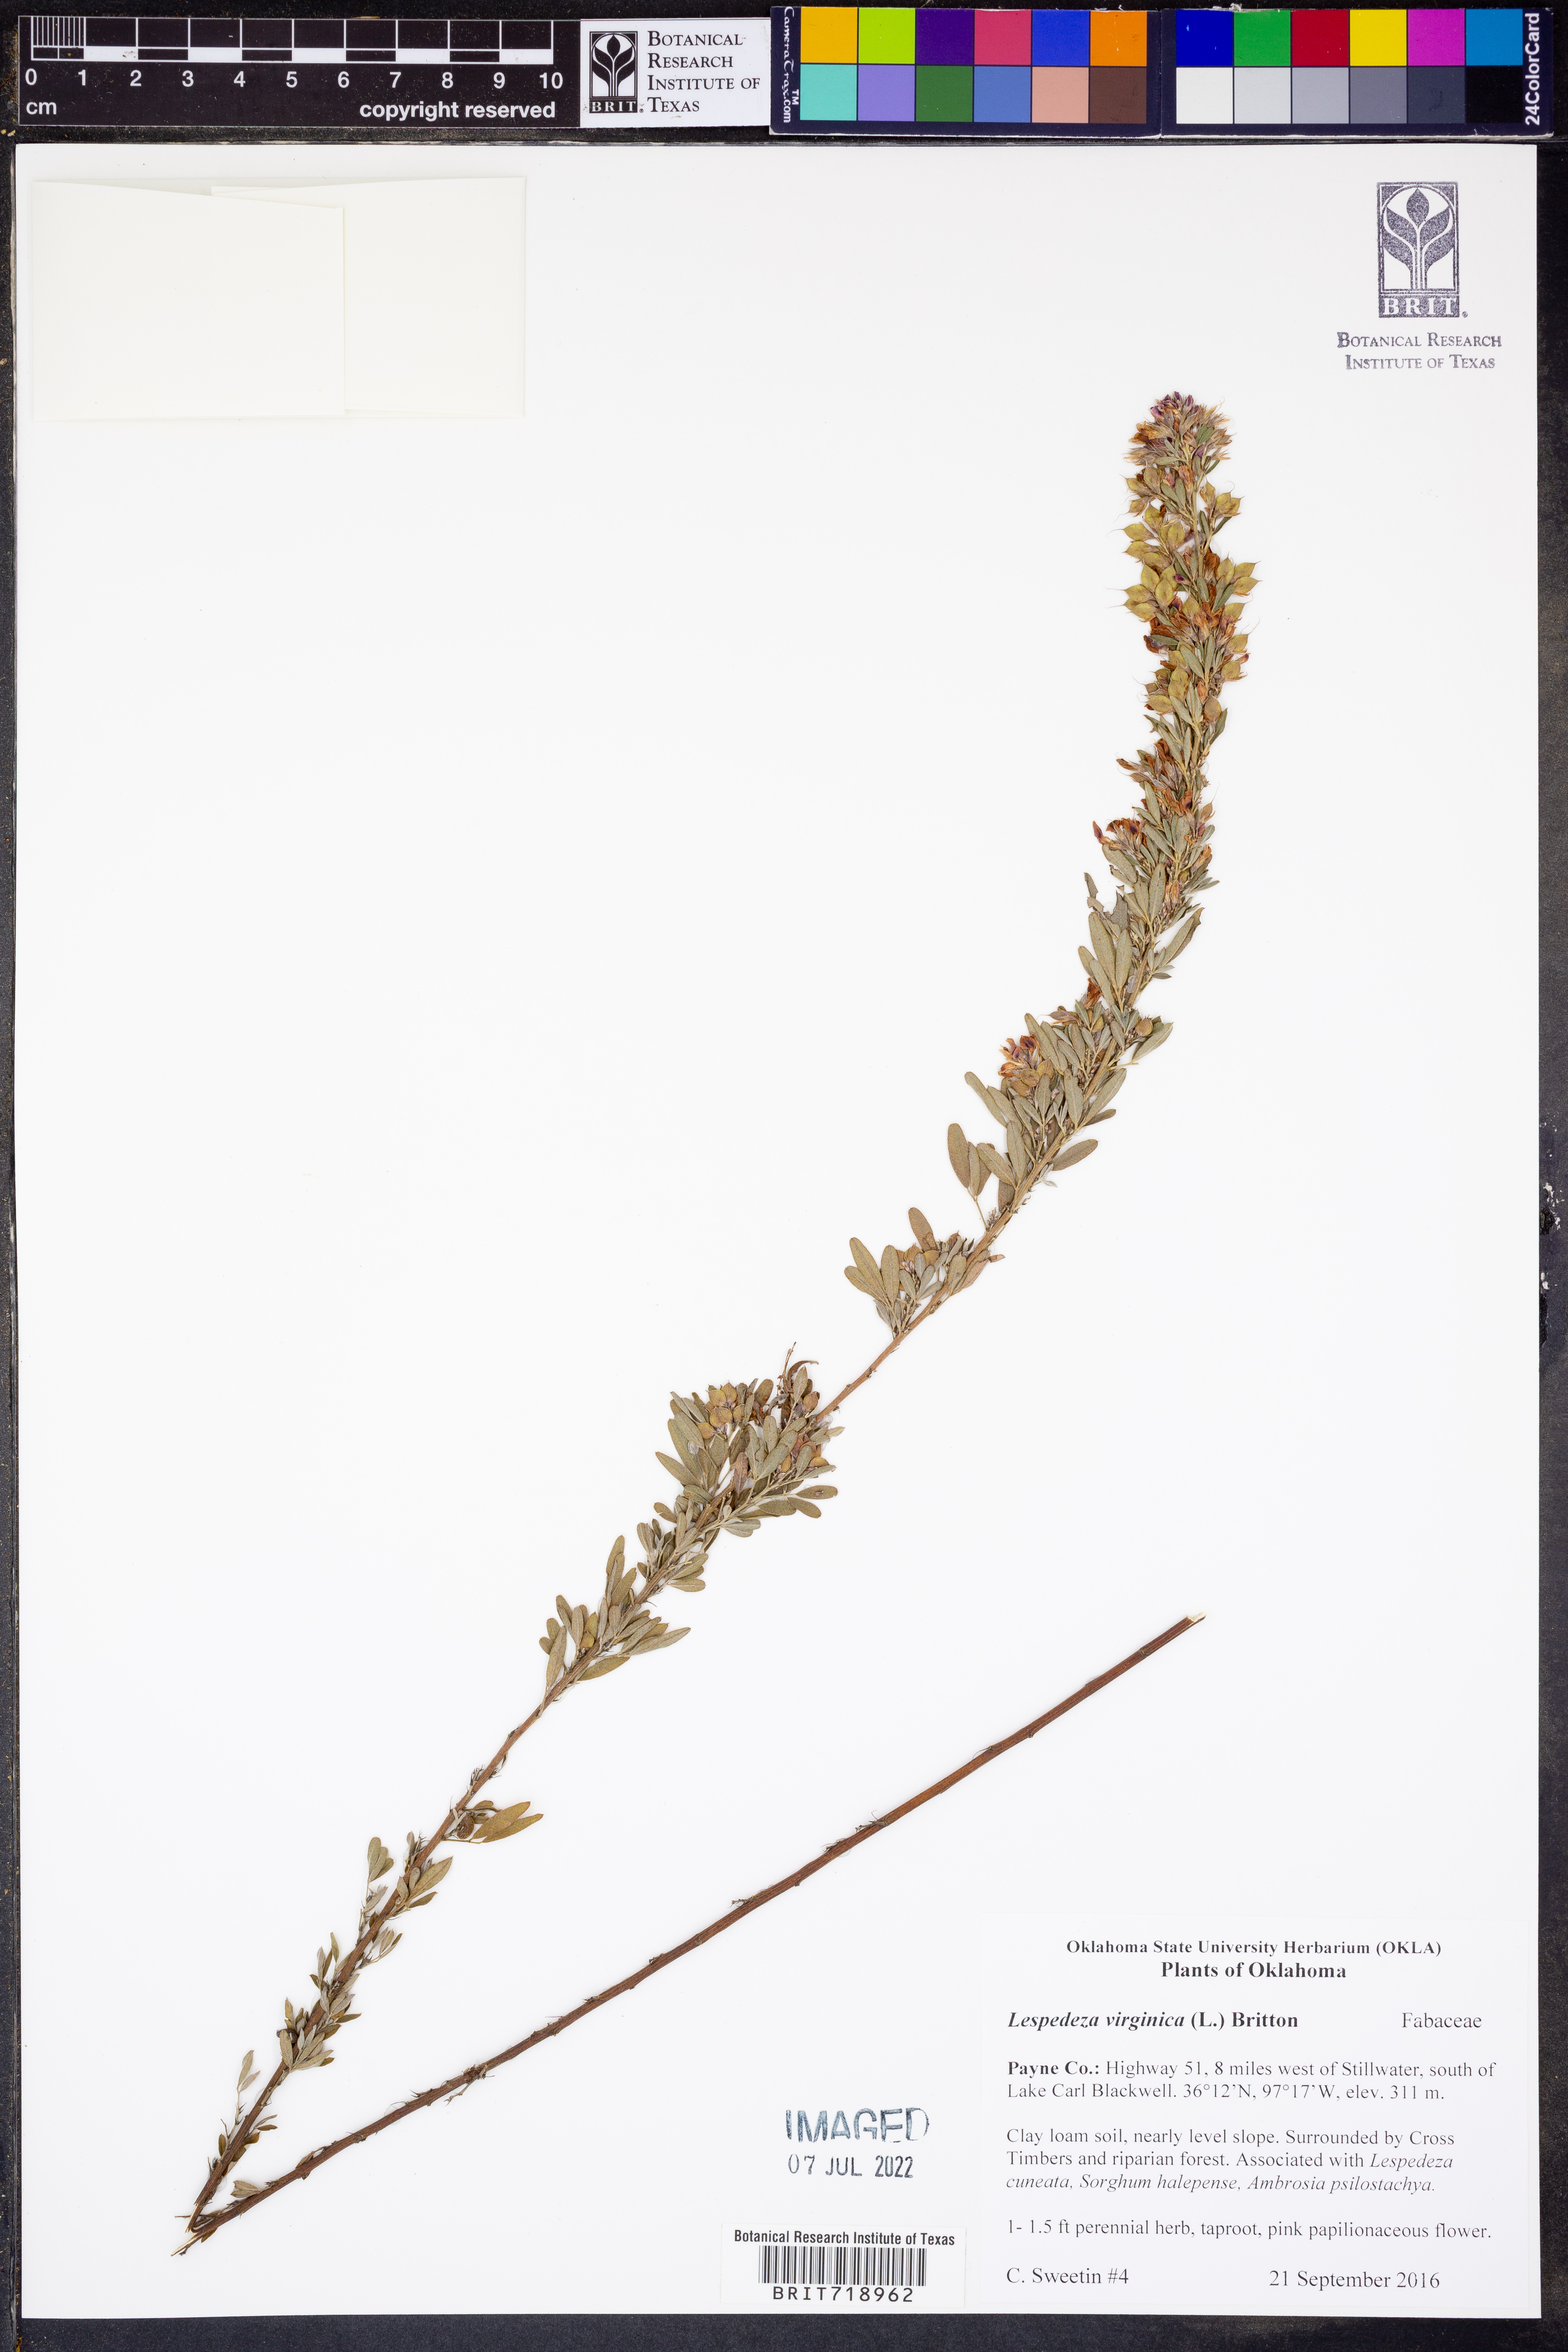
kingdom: Plantae
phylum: Tracheophyta
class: Magnoliopsida
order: Fabales
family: Fabaceae
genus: Lespedeza
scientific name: Lespedeza virginica
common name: Slender bush-clover
